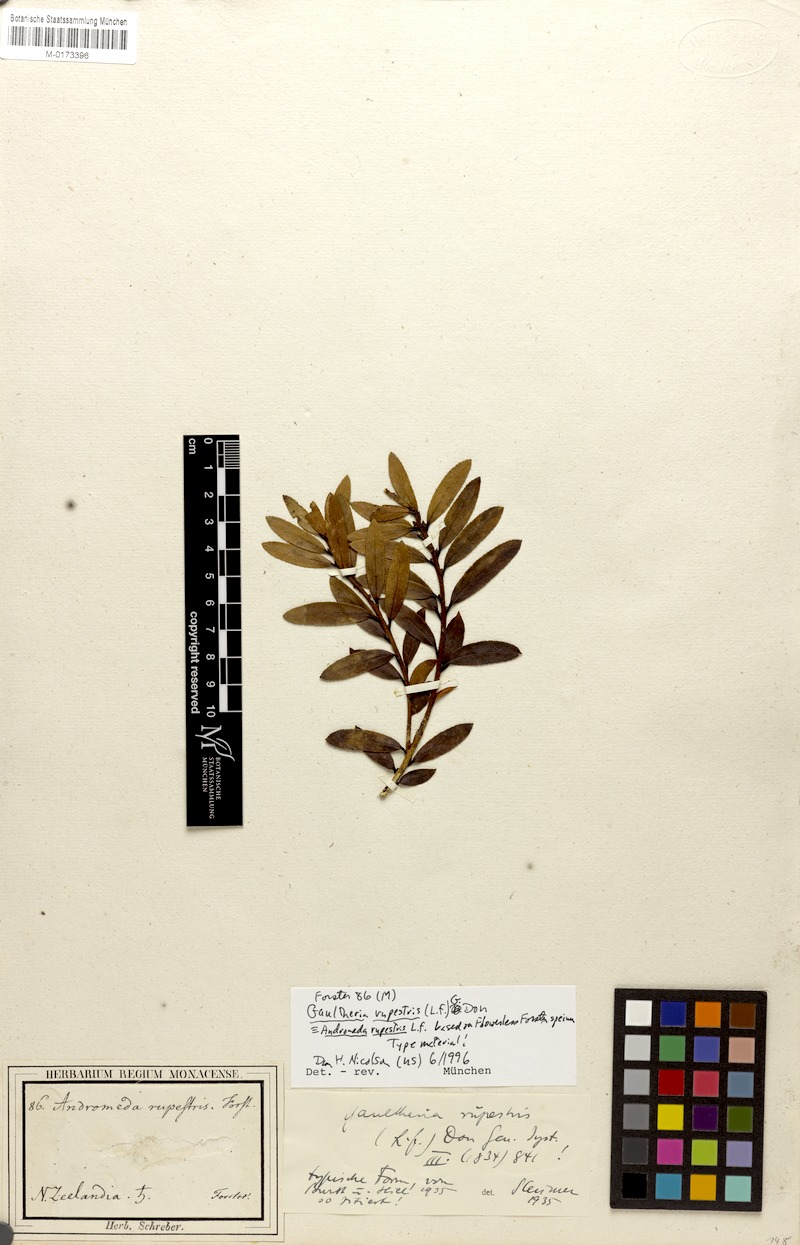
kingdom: Plantae
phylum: Tracheophyta
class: Magnoliopsida
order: Ericales
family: Ericaceae
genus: Gaultheria
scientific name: Gaultheria rupestris
